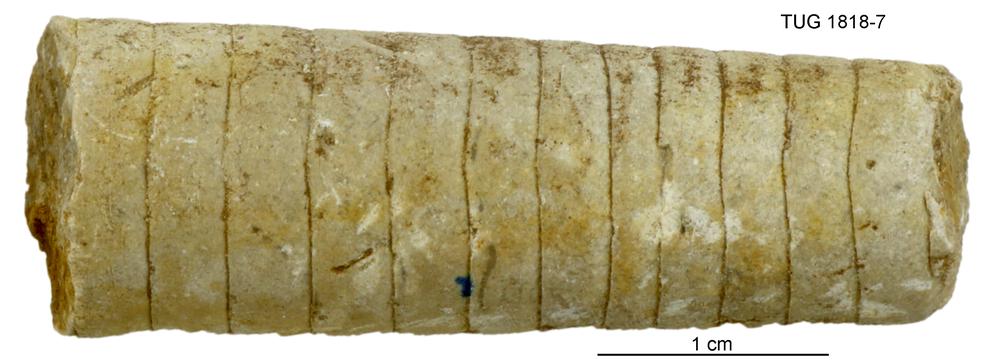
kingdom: Animalia
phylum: Mollusca
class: Cephalopoda
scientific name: Cephalopoda
